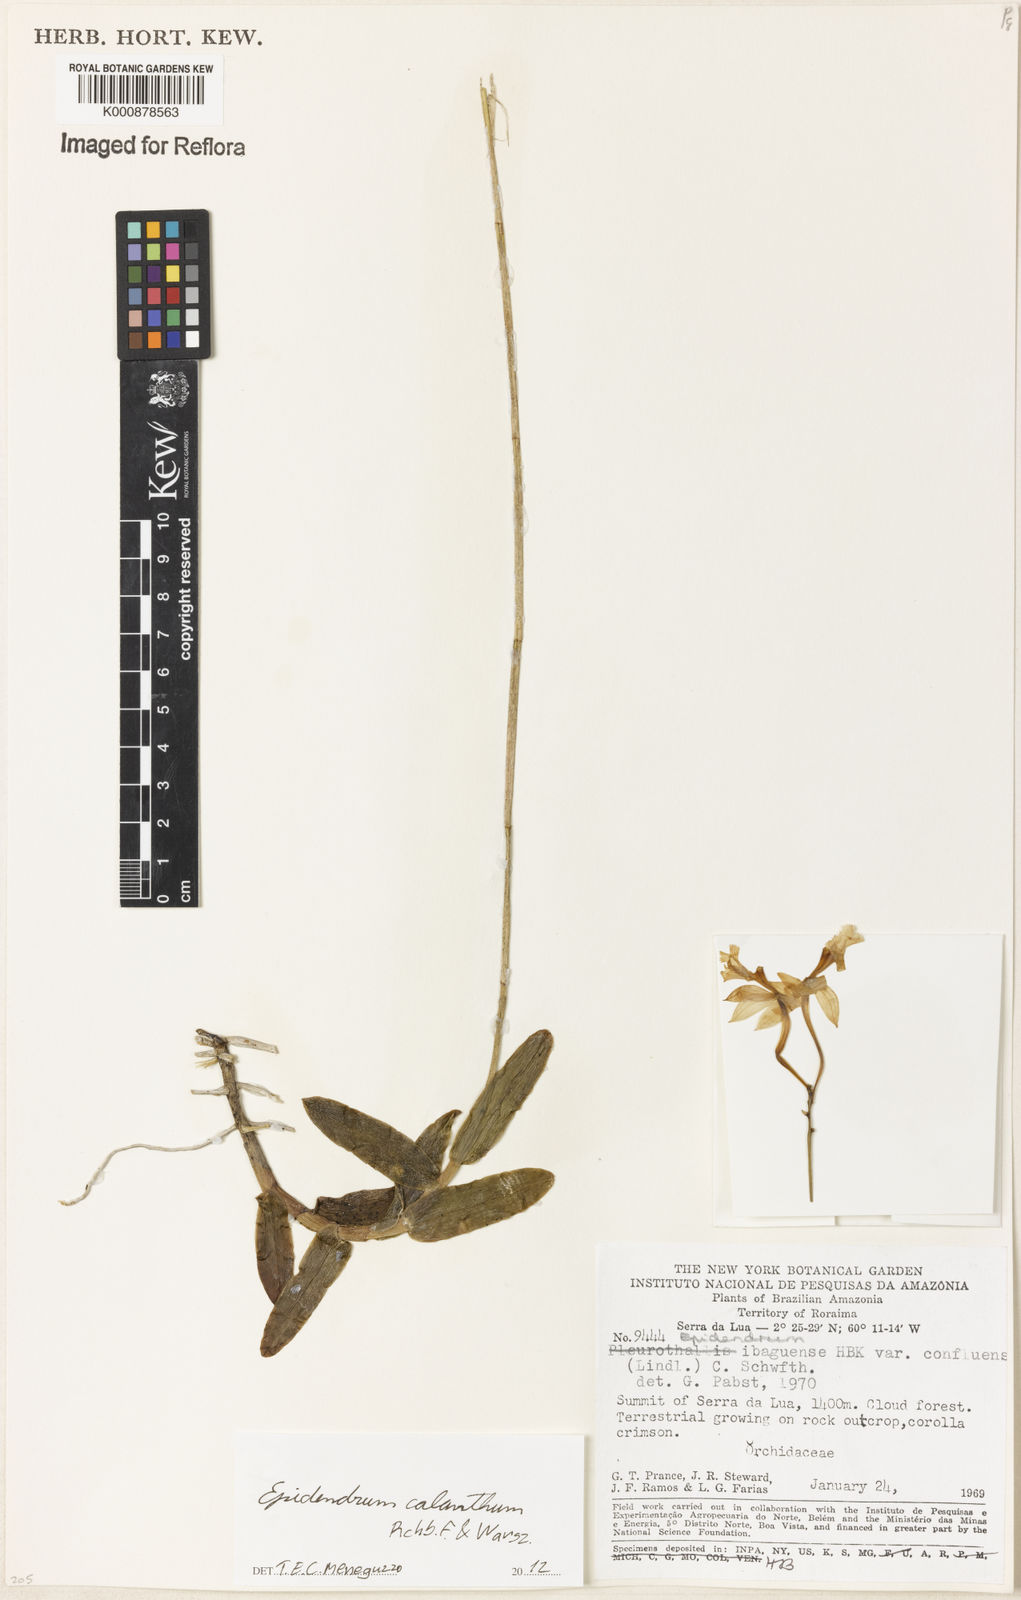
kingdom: Plantae
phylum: Tracheophyta
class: Liliopsida
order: Asparagales
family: Orchidaceae
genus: Epidendrum
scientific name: Epidendrum calanthum
